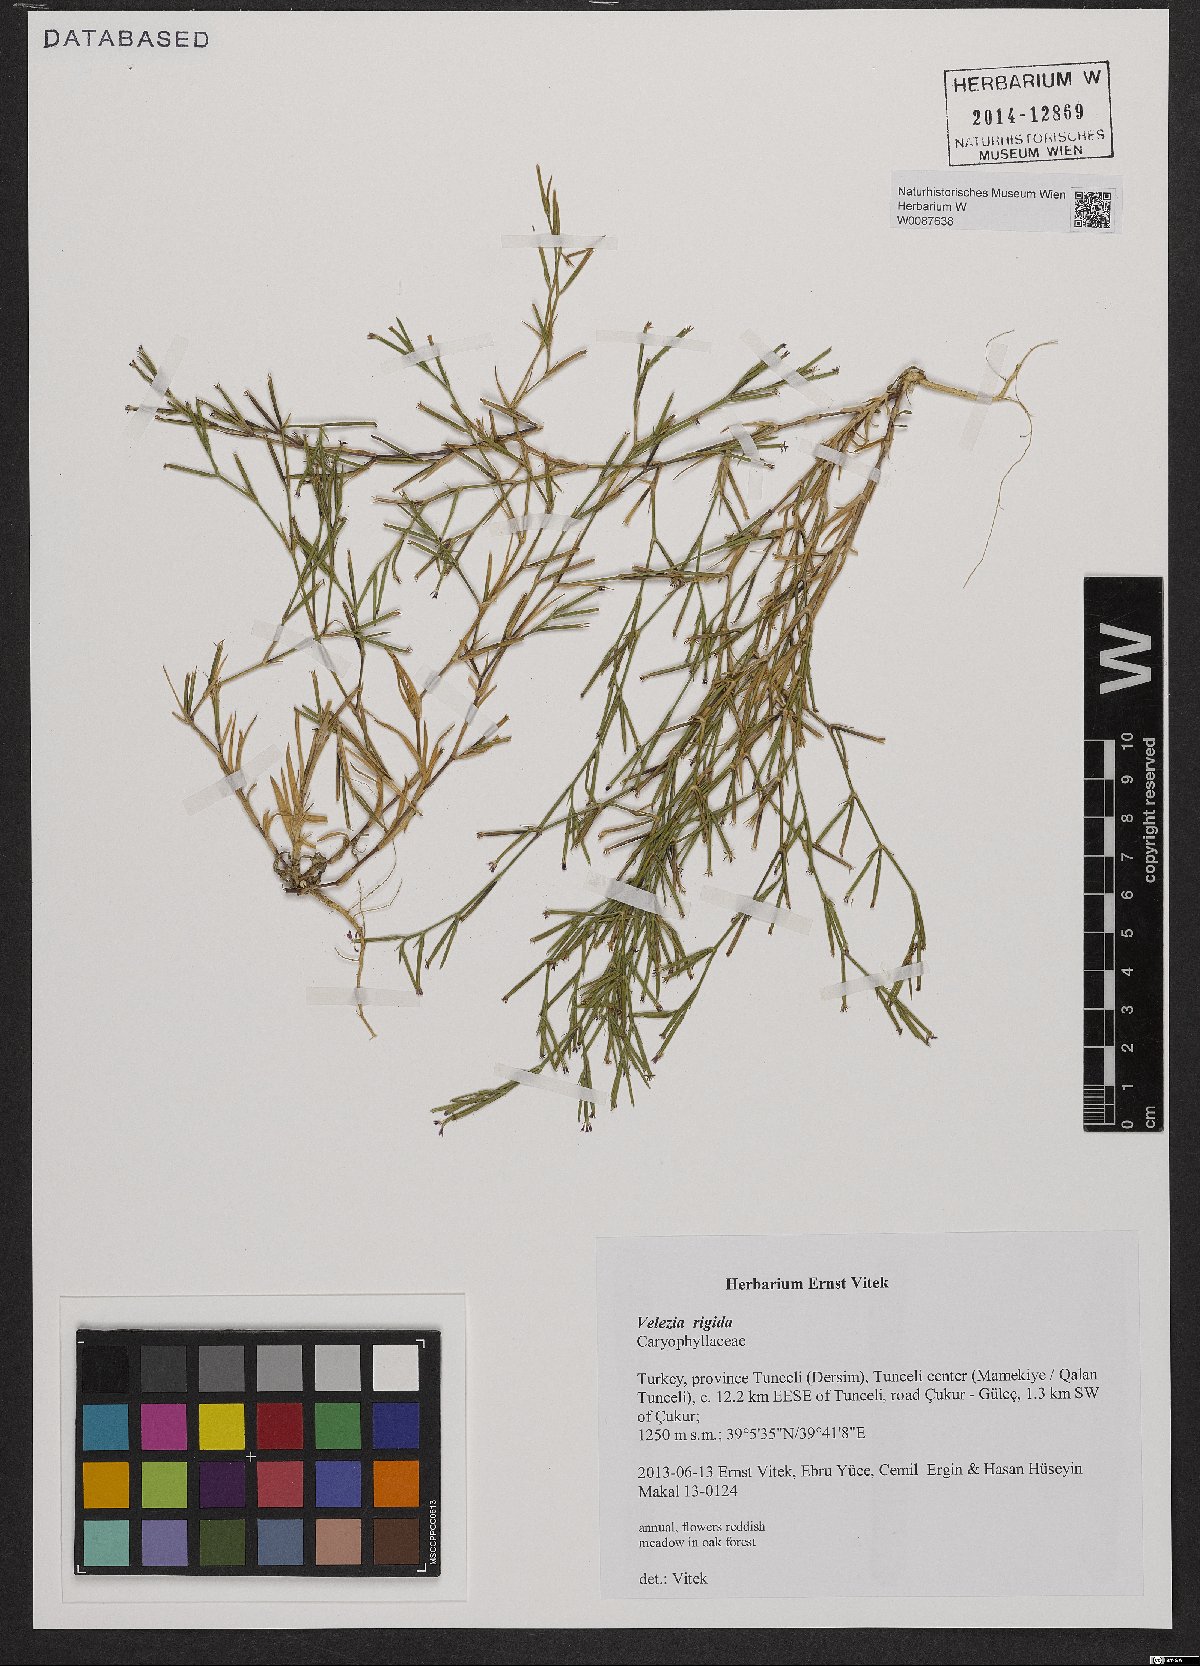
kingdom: Plantae
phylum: Tracheophyta
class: Magnoliopsida
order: Caryophyllales
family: Caryophyllaceae
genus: Dianthus
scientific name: Dianthus nudiflorus
